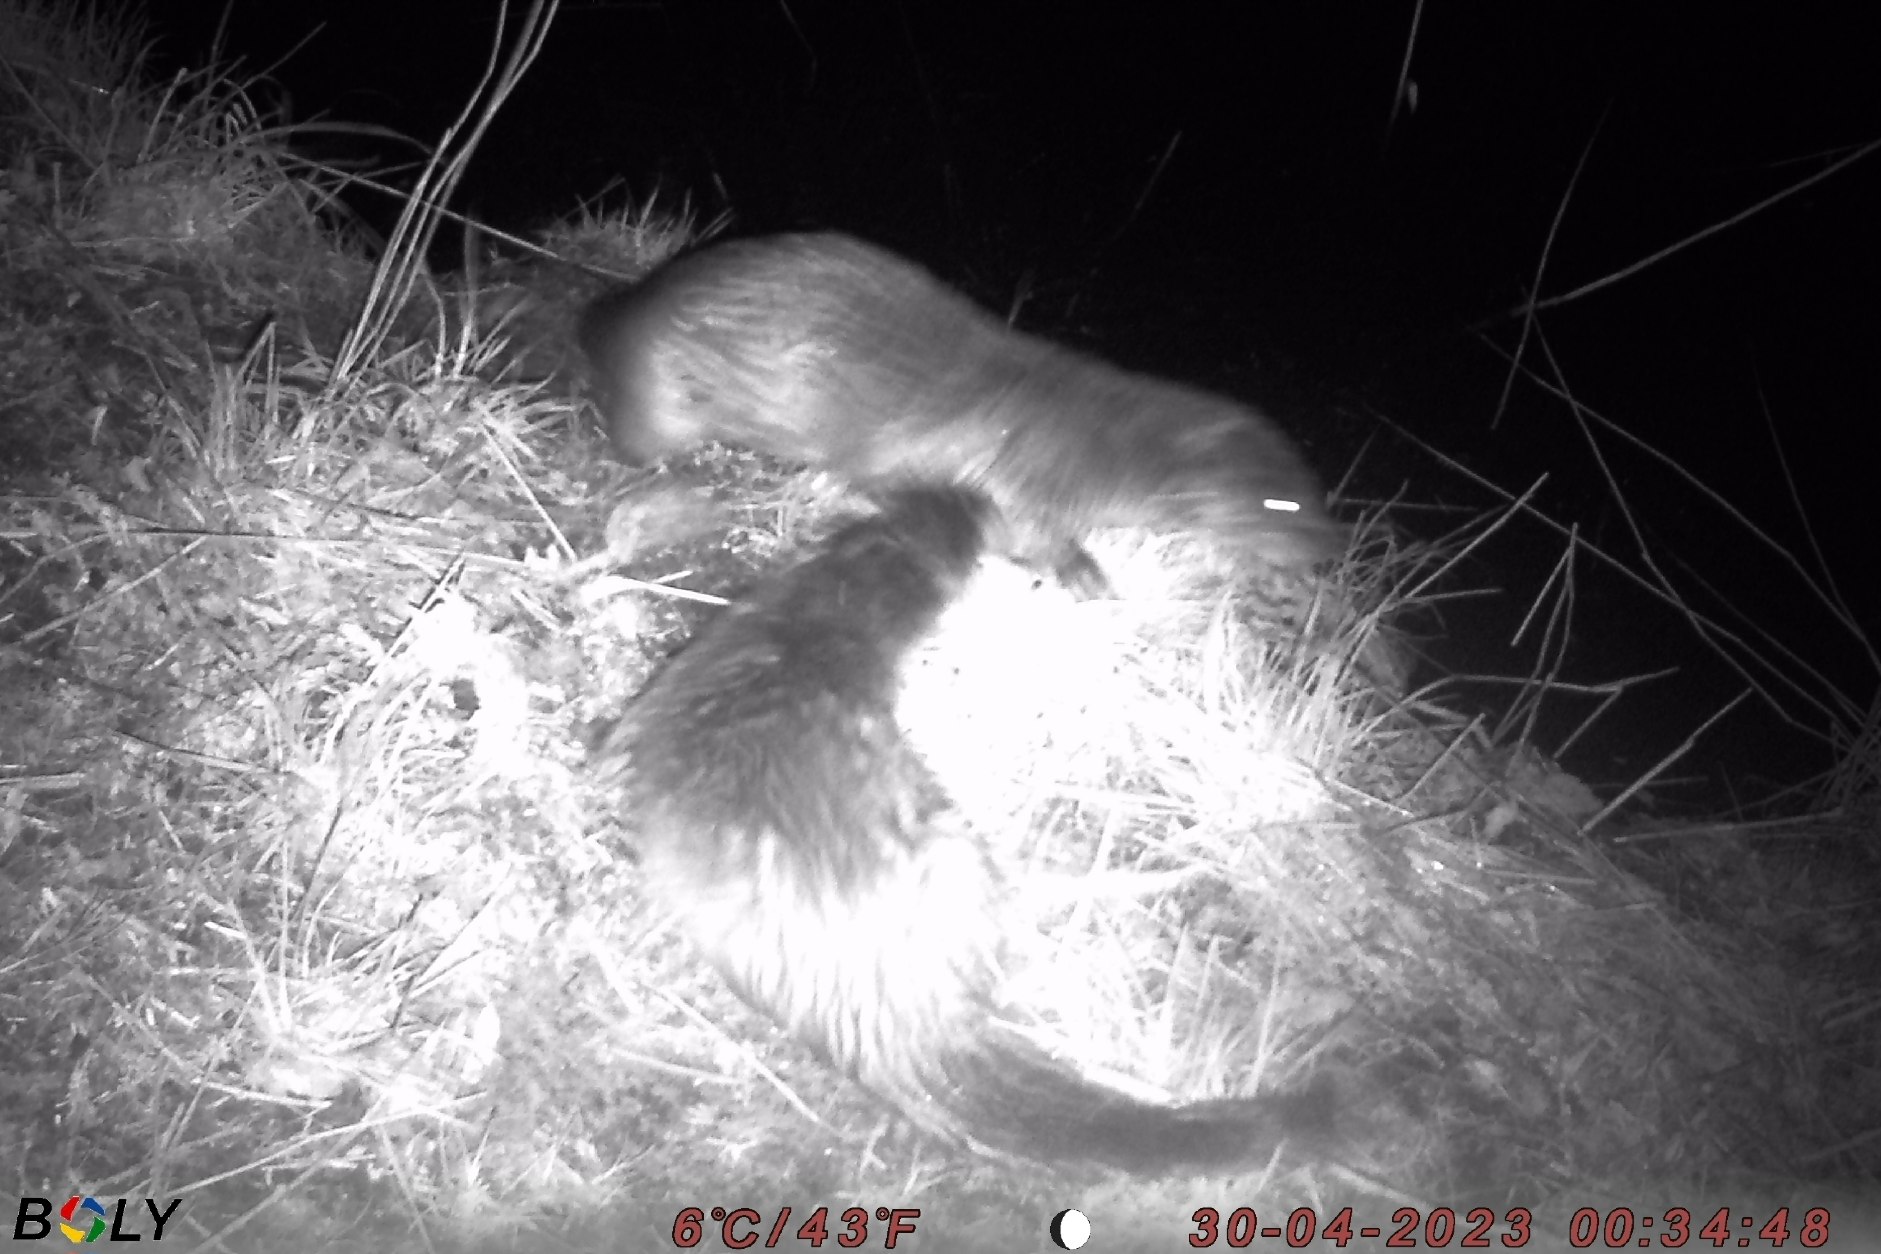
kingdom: Animalia
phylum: Chordata
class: Mammalia
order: Carnivora
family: Mustelidae
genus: Lutra
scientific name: Lutra lutra
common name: Odder
